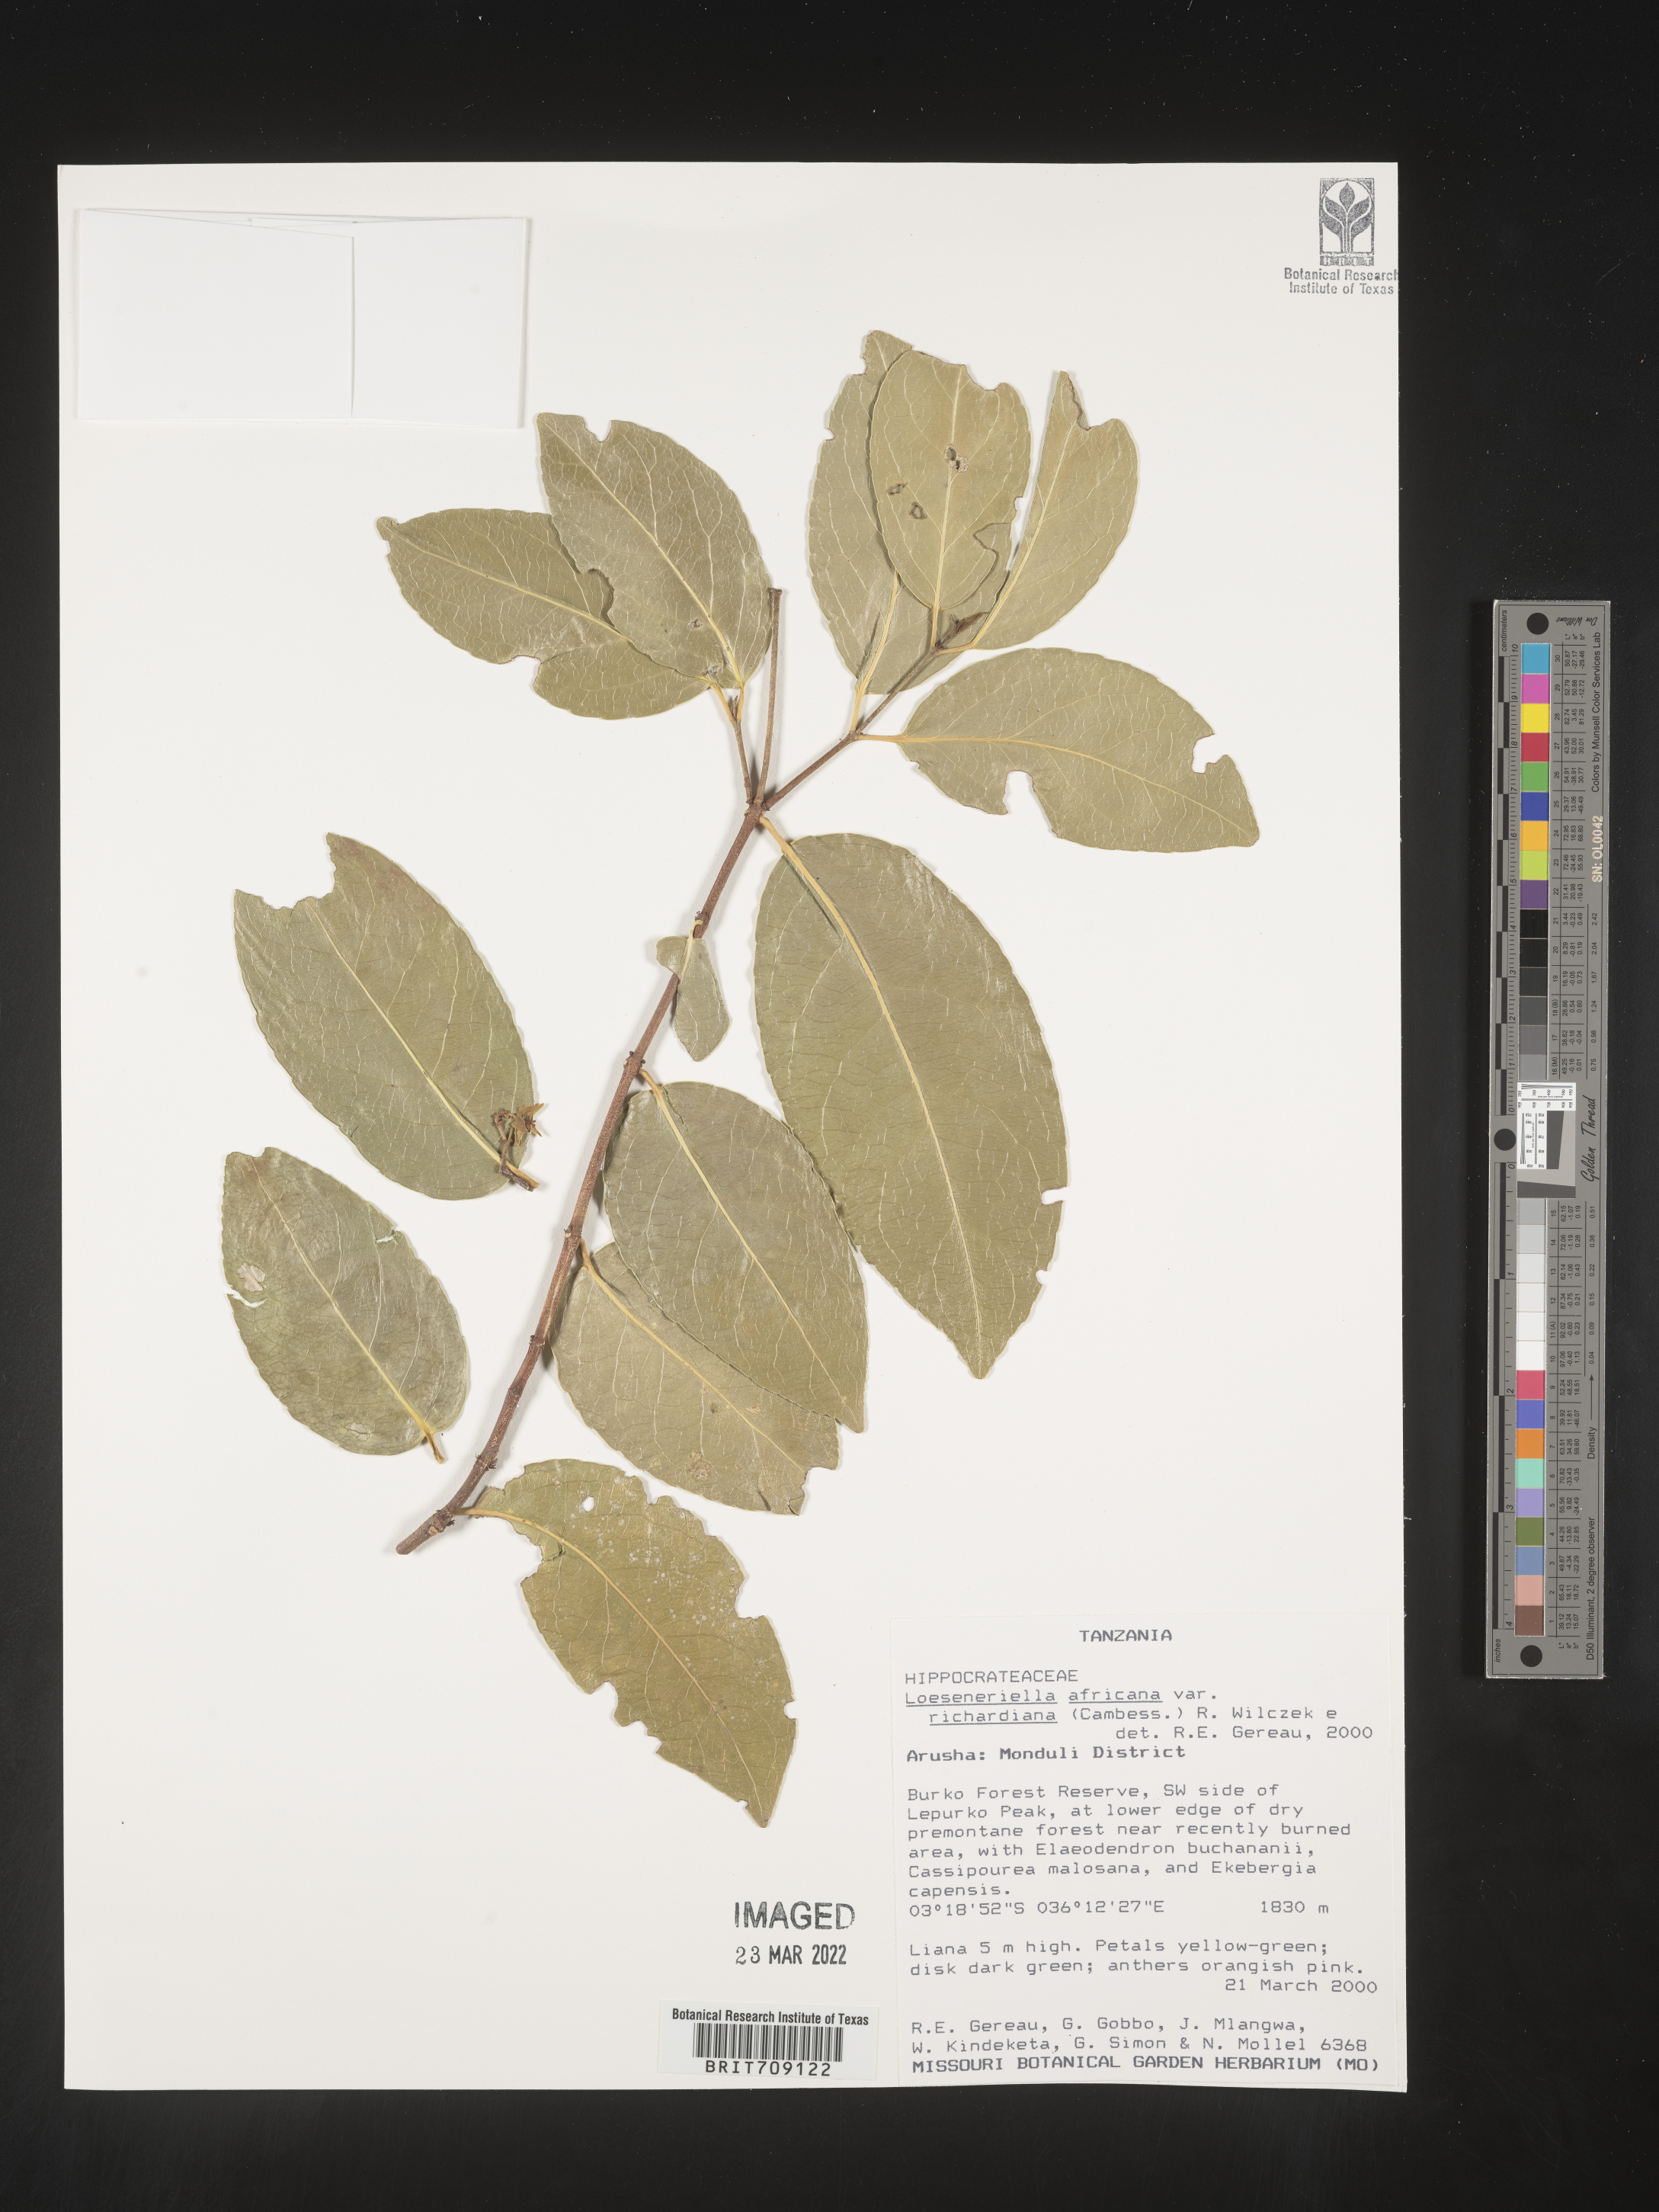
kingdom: Plantae
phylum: Tracheophyta
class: Magnoliopsida
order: Celastrales
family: Celastraceae
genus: Loeseneriella
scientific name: Loeseneriella
